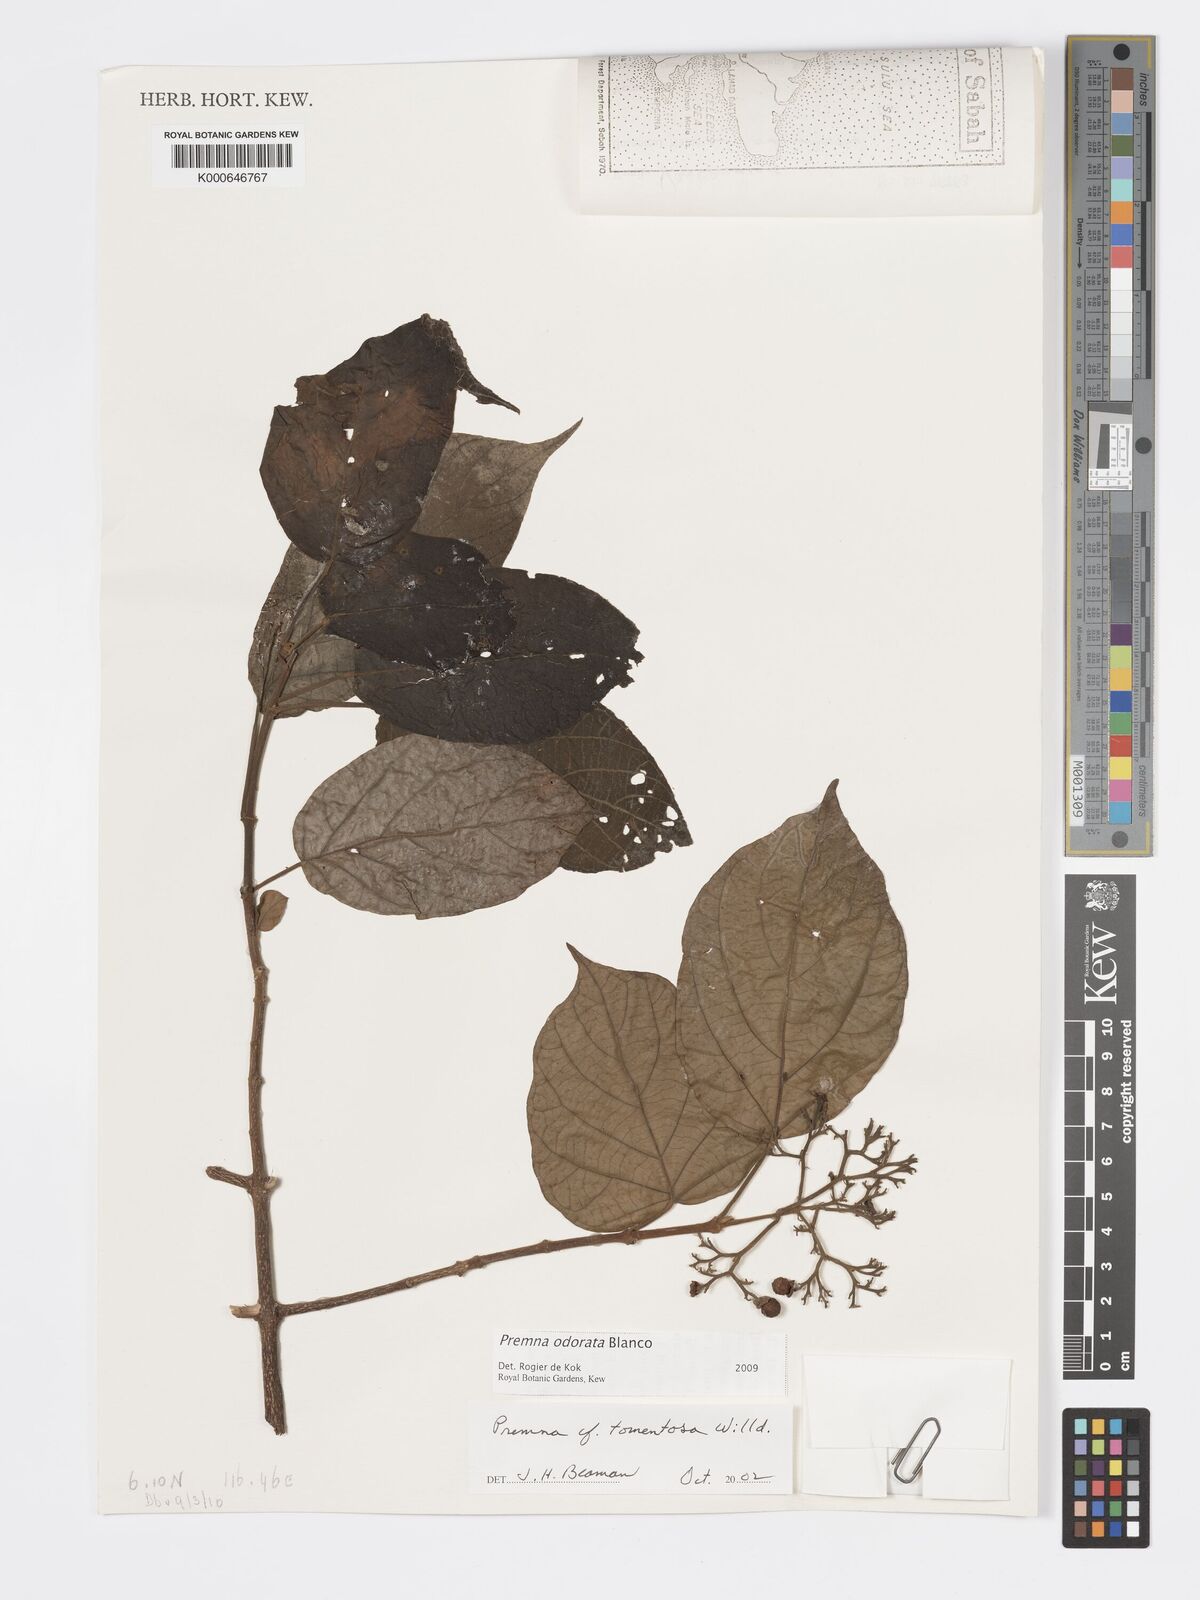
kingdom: Plantae
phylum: Tracheophyta
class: Magnoliopsida
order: Lamiales
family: Lamiaceae
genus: Premna
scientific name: Premna odorata
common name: Fragrant premna
